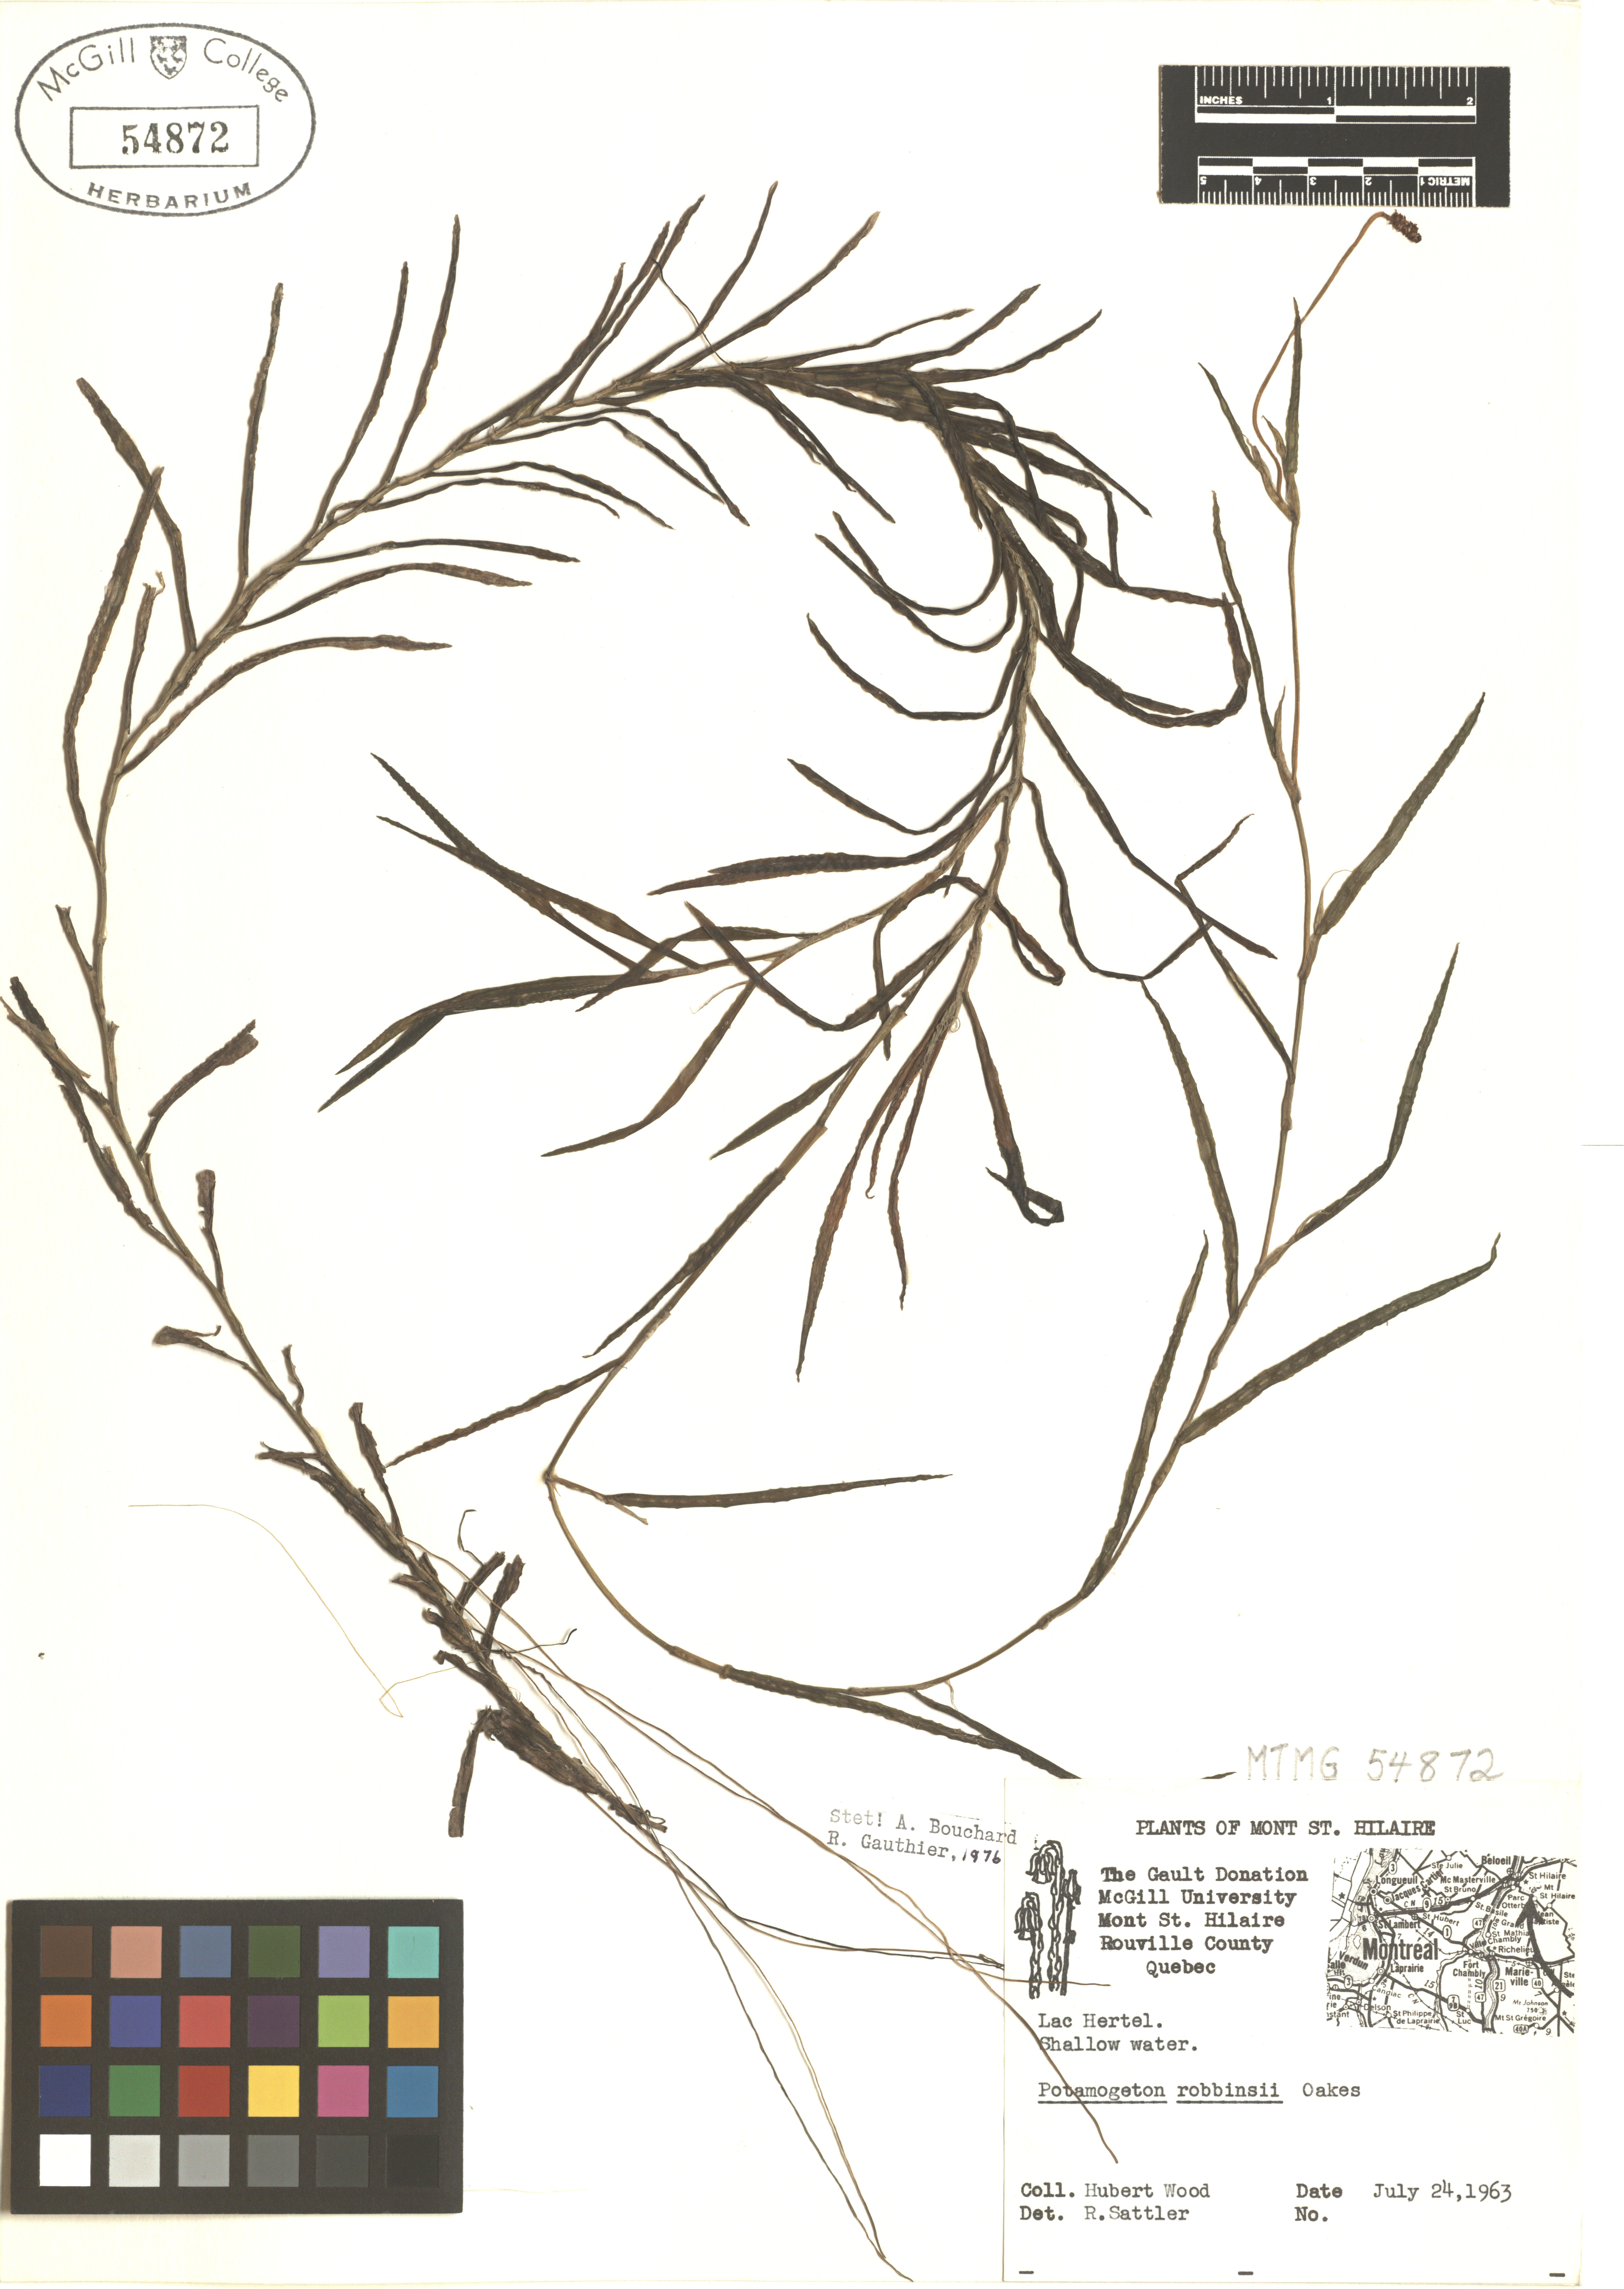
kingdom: Plantae
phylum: Tracheophyta
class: Liliopsida
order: Alismatales
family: Potamogetonaceae
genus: Potamogeton
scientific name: Potamogeton robbinsii
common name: Fern pondweed
